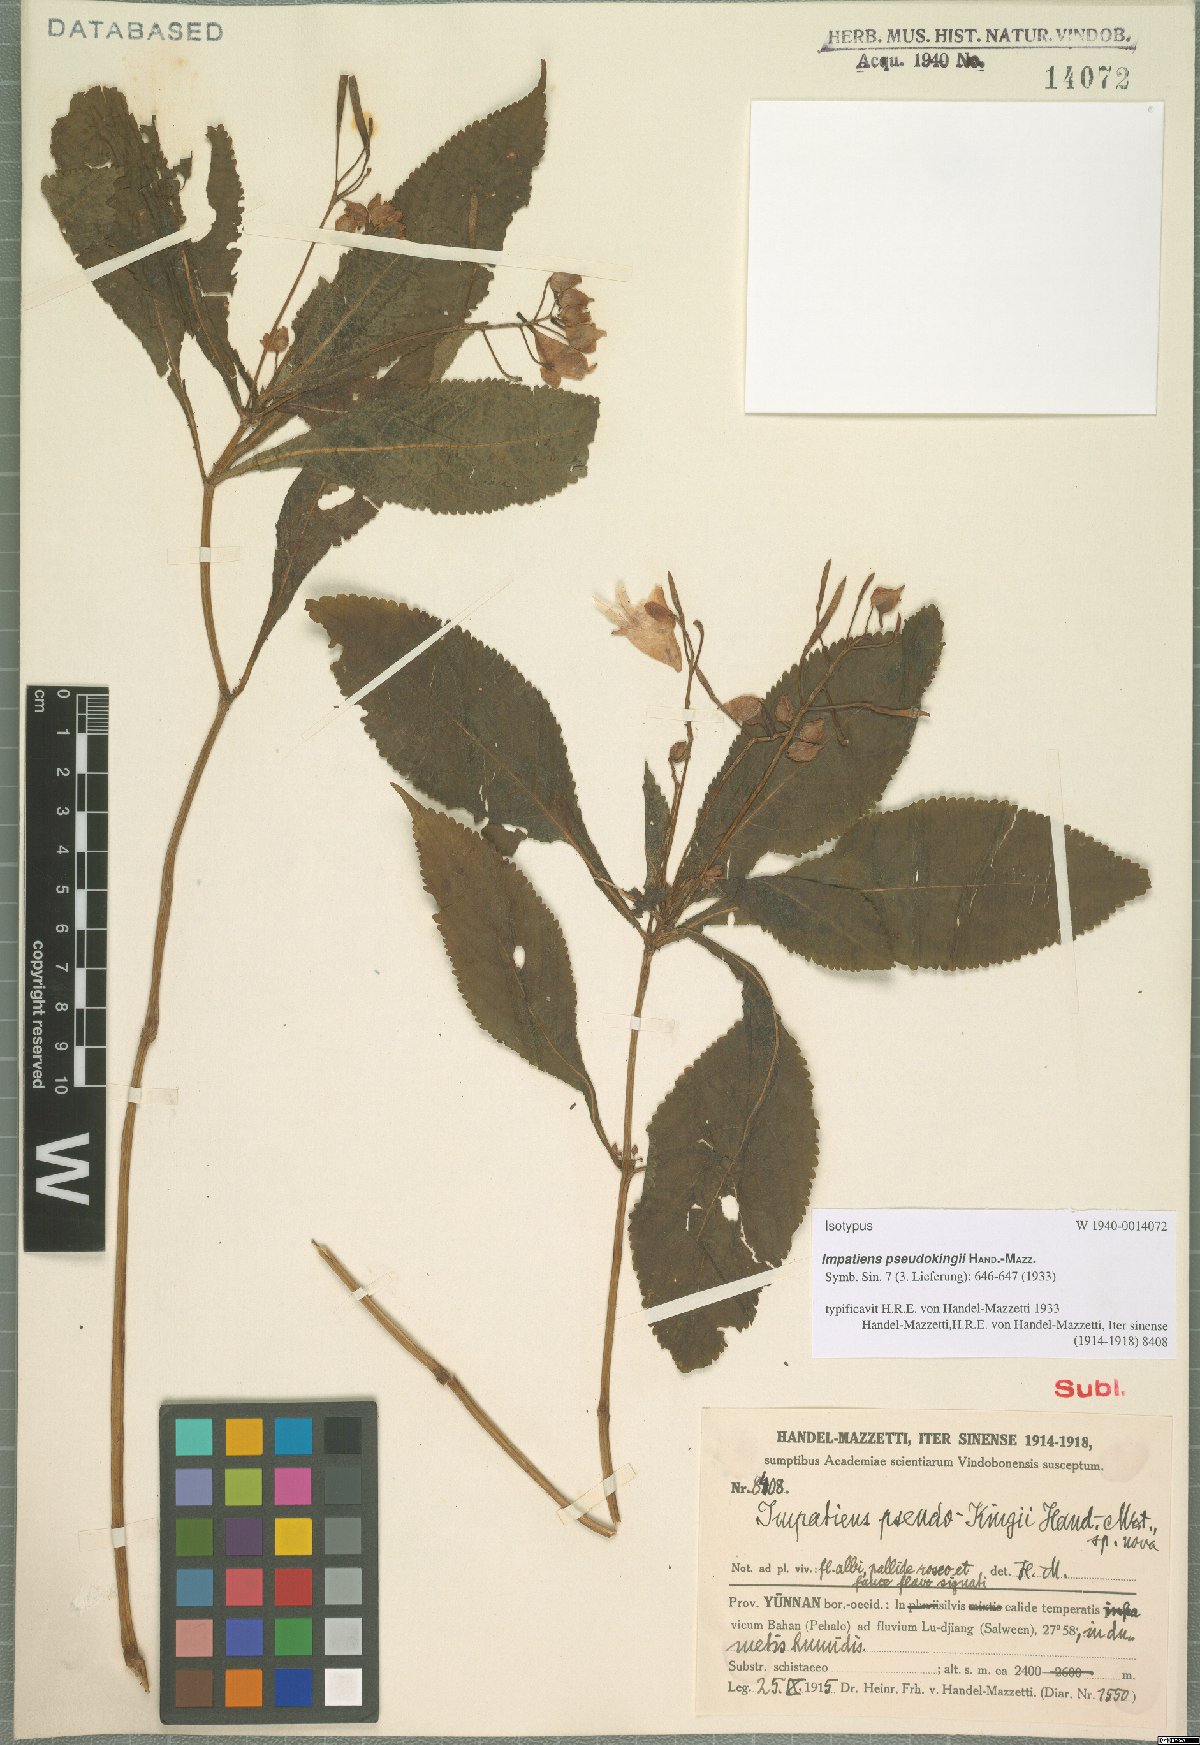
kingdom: Plantae
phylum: Tracheophyta
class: Magnoliopsida
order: Ericales
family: Balsaminaceae
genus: Impatiens
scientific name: Impatiens pseudokingii
